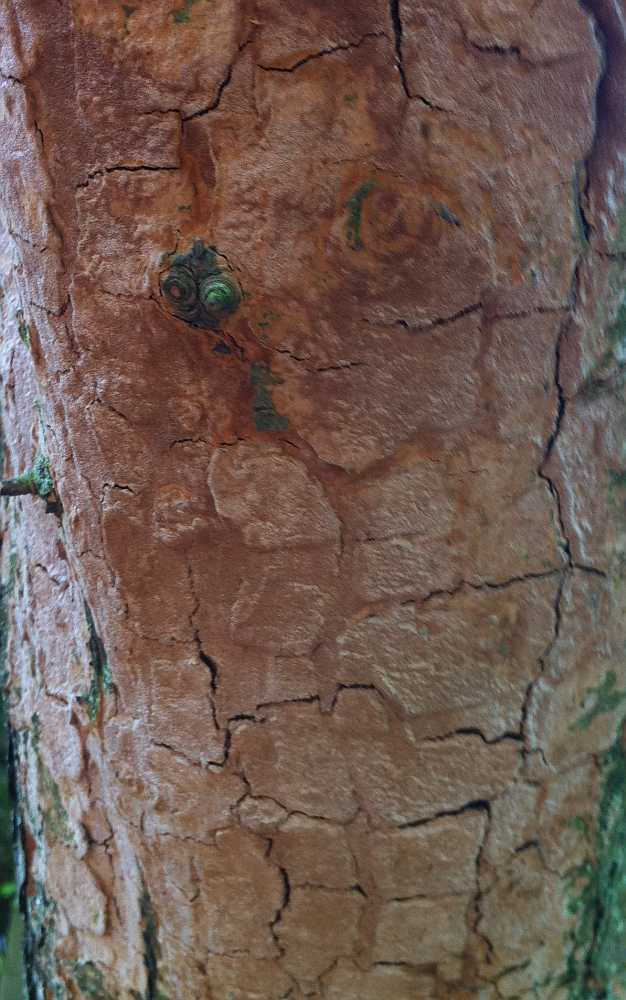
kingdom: Fungi
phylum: Basidiomycota
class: Agaricomycetes
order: Hymenochaetales
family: Hymenochaetaceae
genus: Fuscoporia
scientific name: Fuscoporia ferruginosa
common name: rustbrun ildporesvamp
